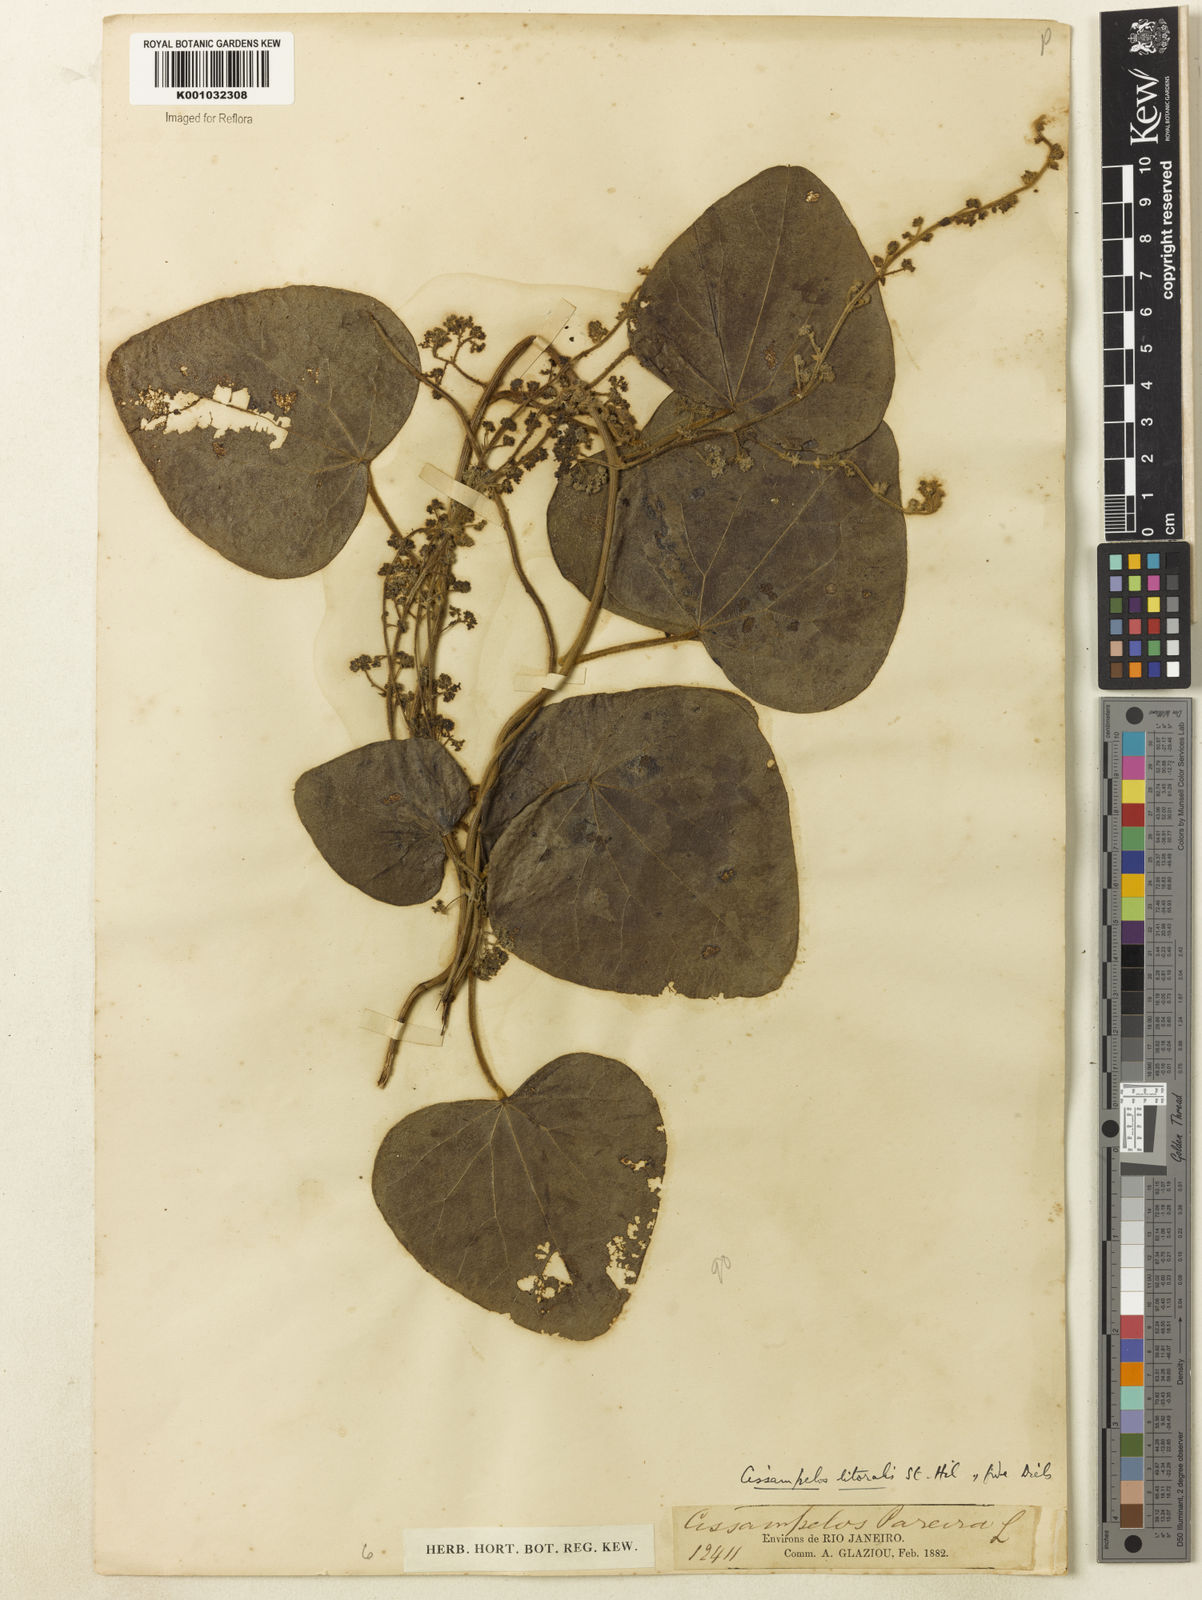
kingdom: Plantae
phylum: Tracheophyta
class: Magnoliopsida
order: Ranunculales
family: Menispermaceae
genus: Cissampelos
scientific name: Cissampelos pareira
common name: Velvetleaf
